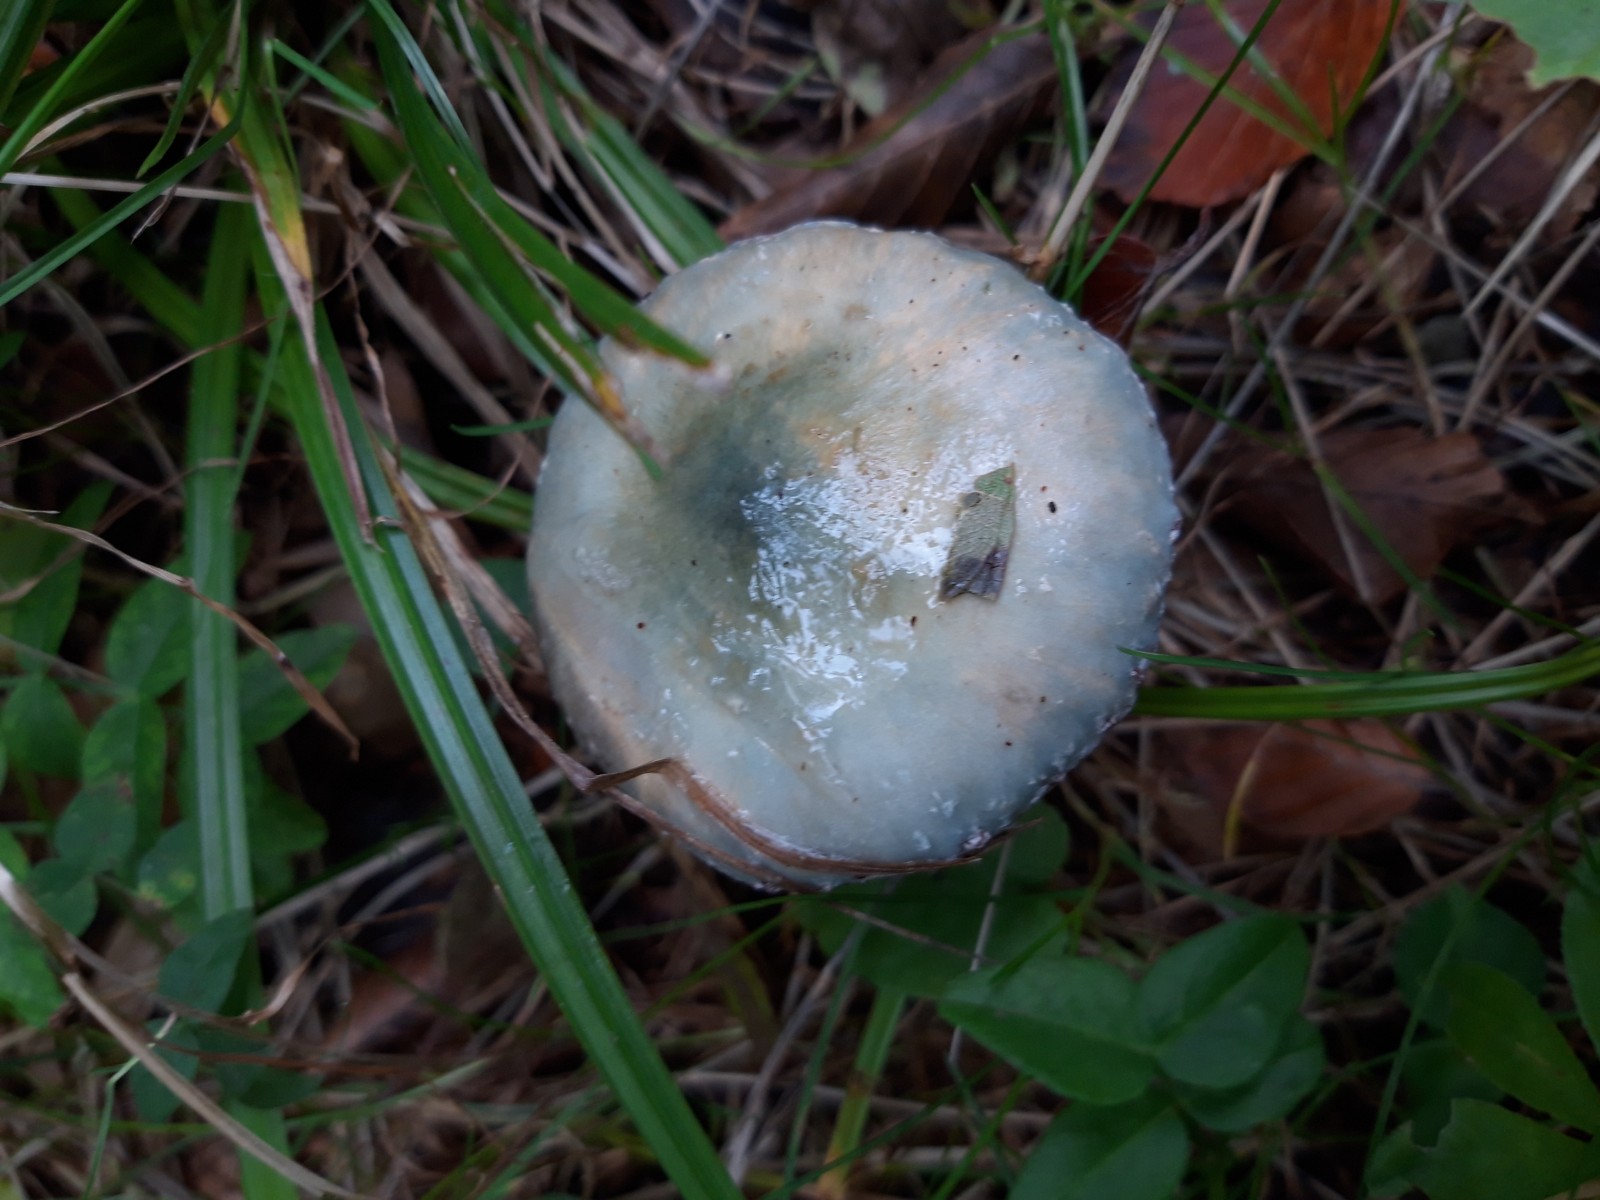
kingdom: Fungi
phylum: Basidiomycota
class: Agaricomycetes
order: Agaricales
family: Strophariaceae
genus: Stropharia
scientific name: Stropharia cyanea
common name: blågrøn bredblad
